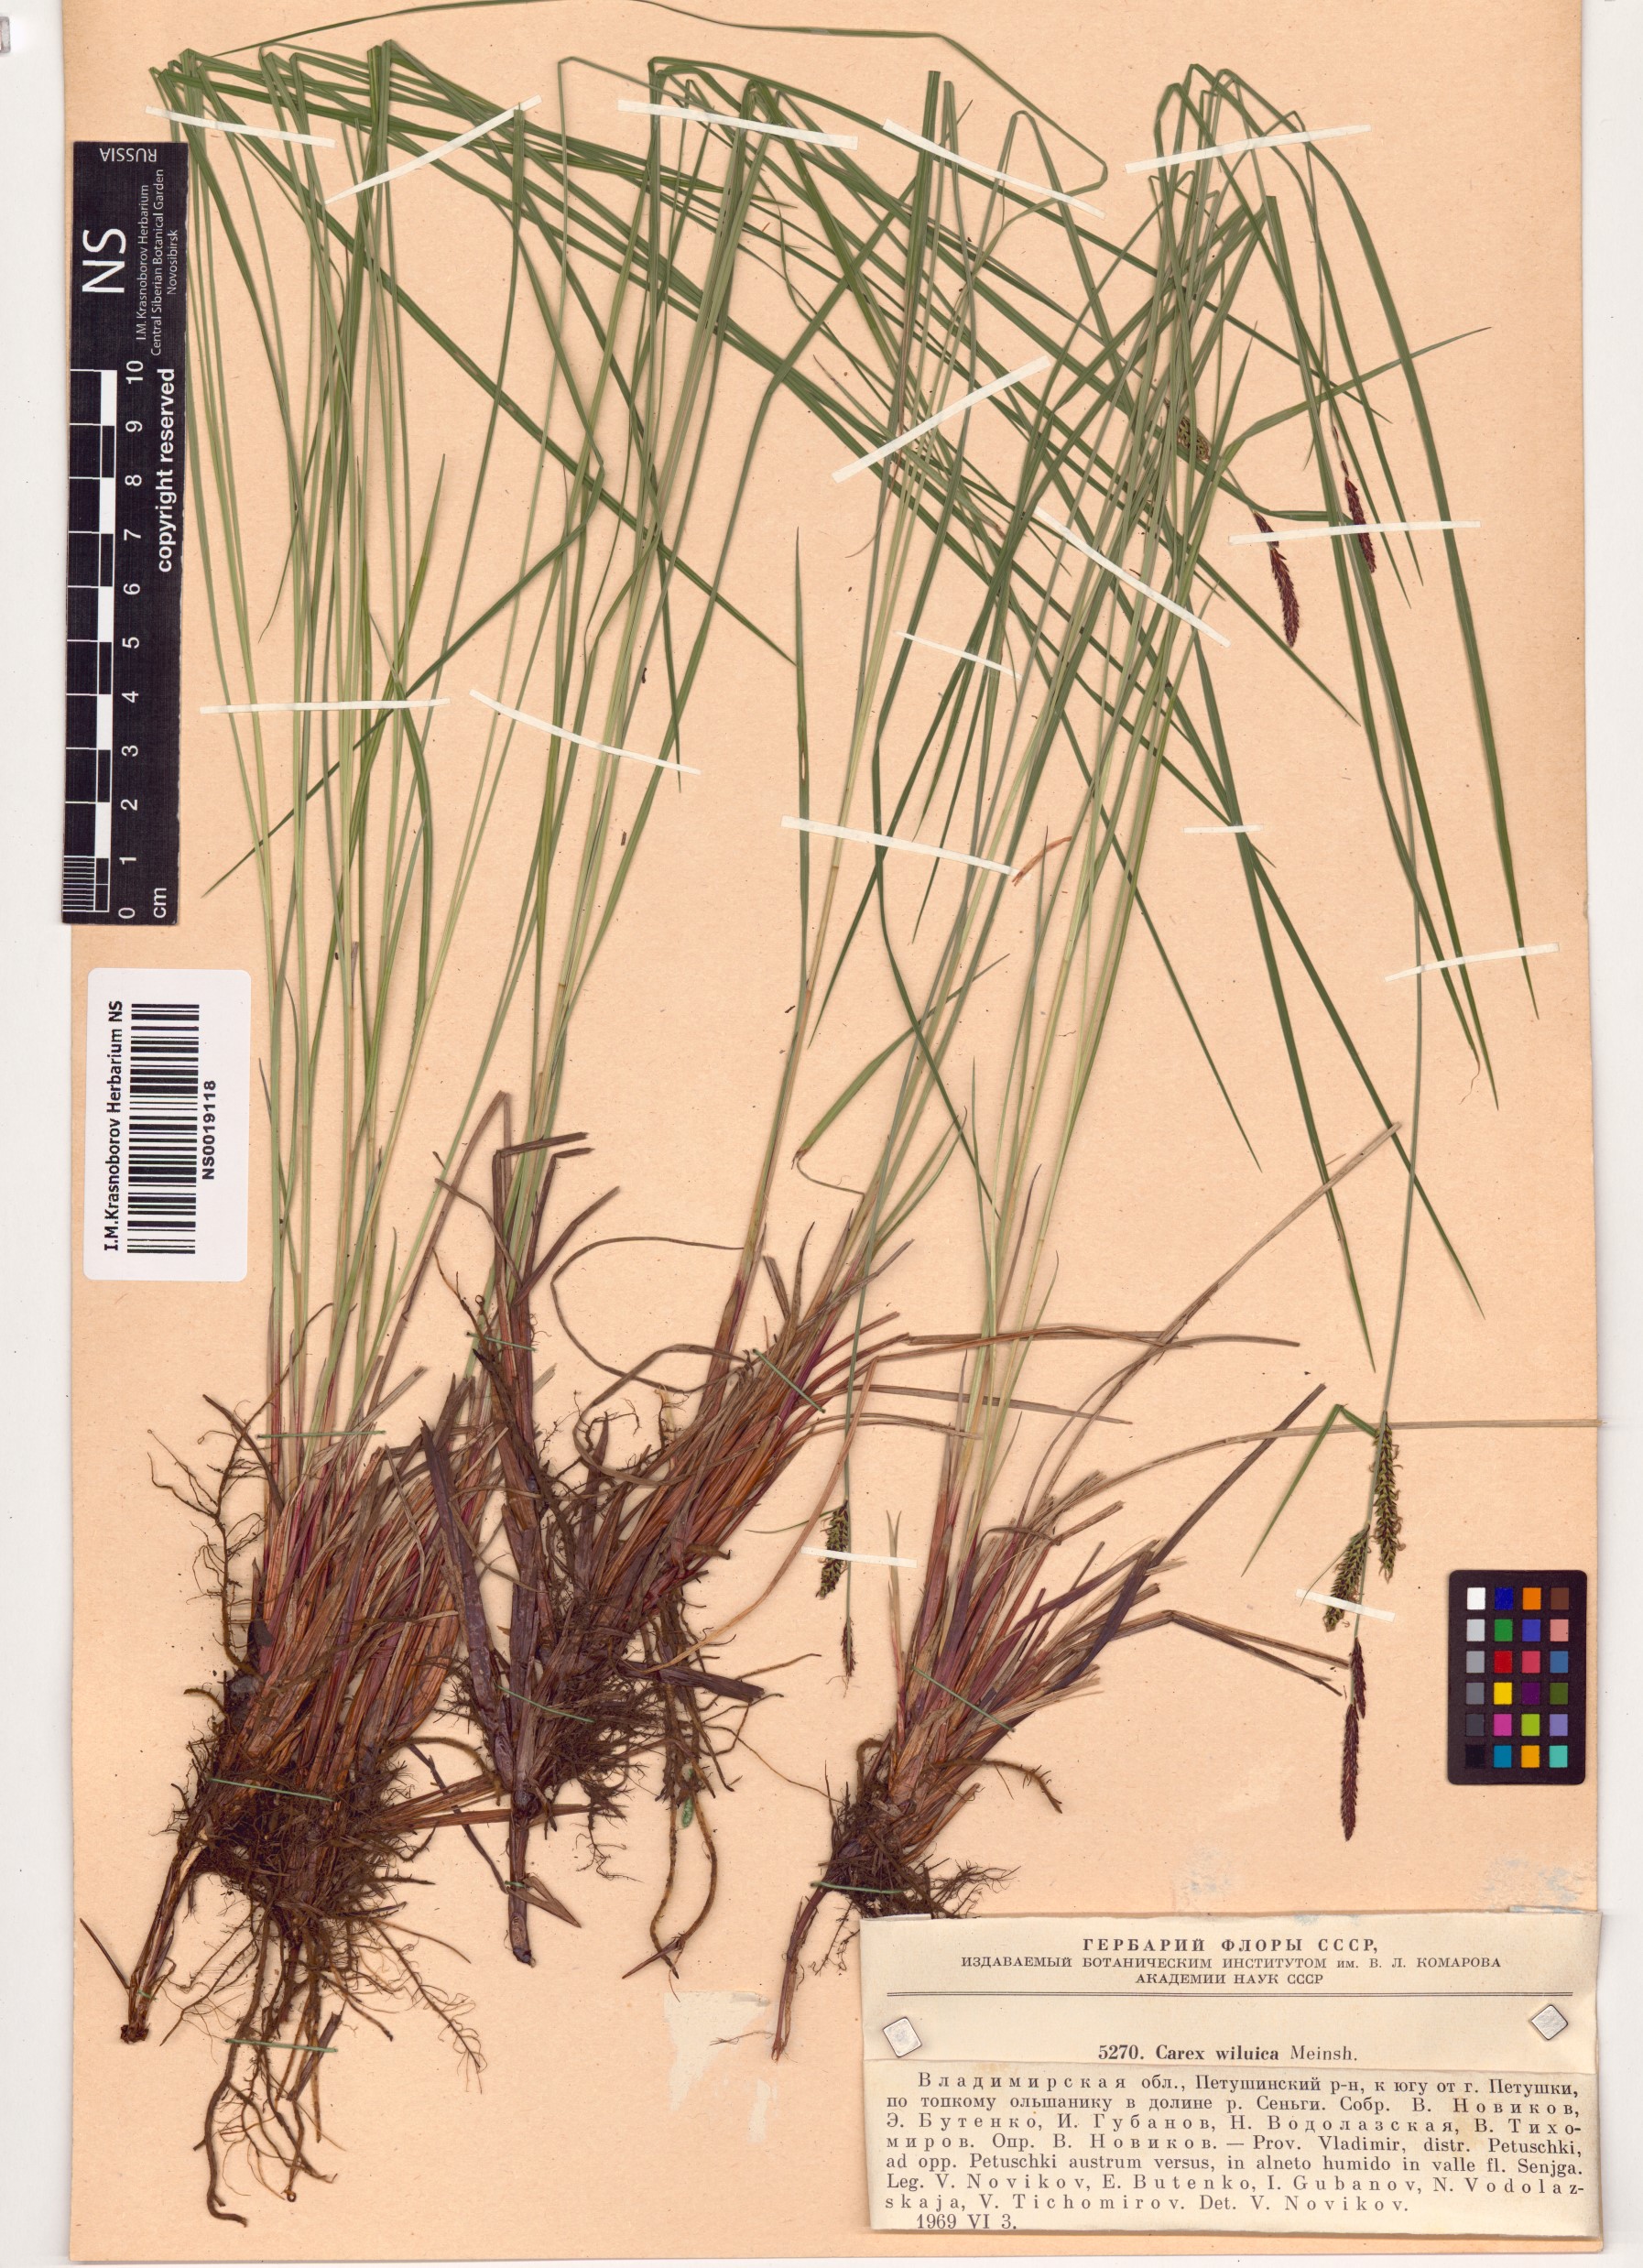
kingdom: Plantae
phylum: Tracheophyta
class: Liliopsida
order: Poales
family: Cyperaceae
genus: Carex
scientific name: Carex nigra
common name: Common sedge
